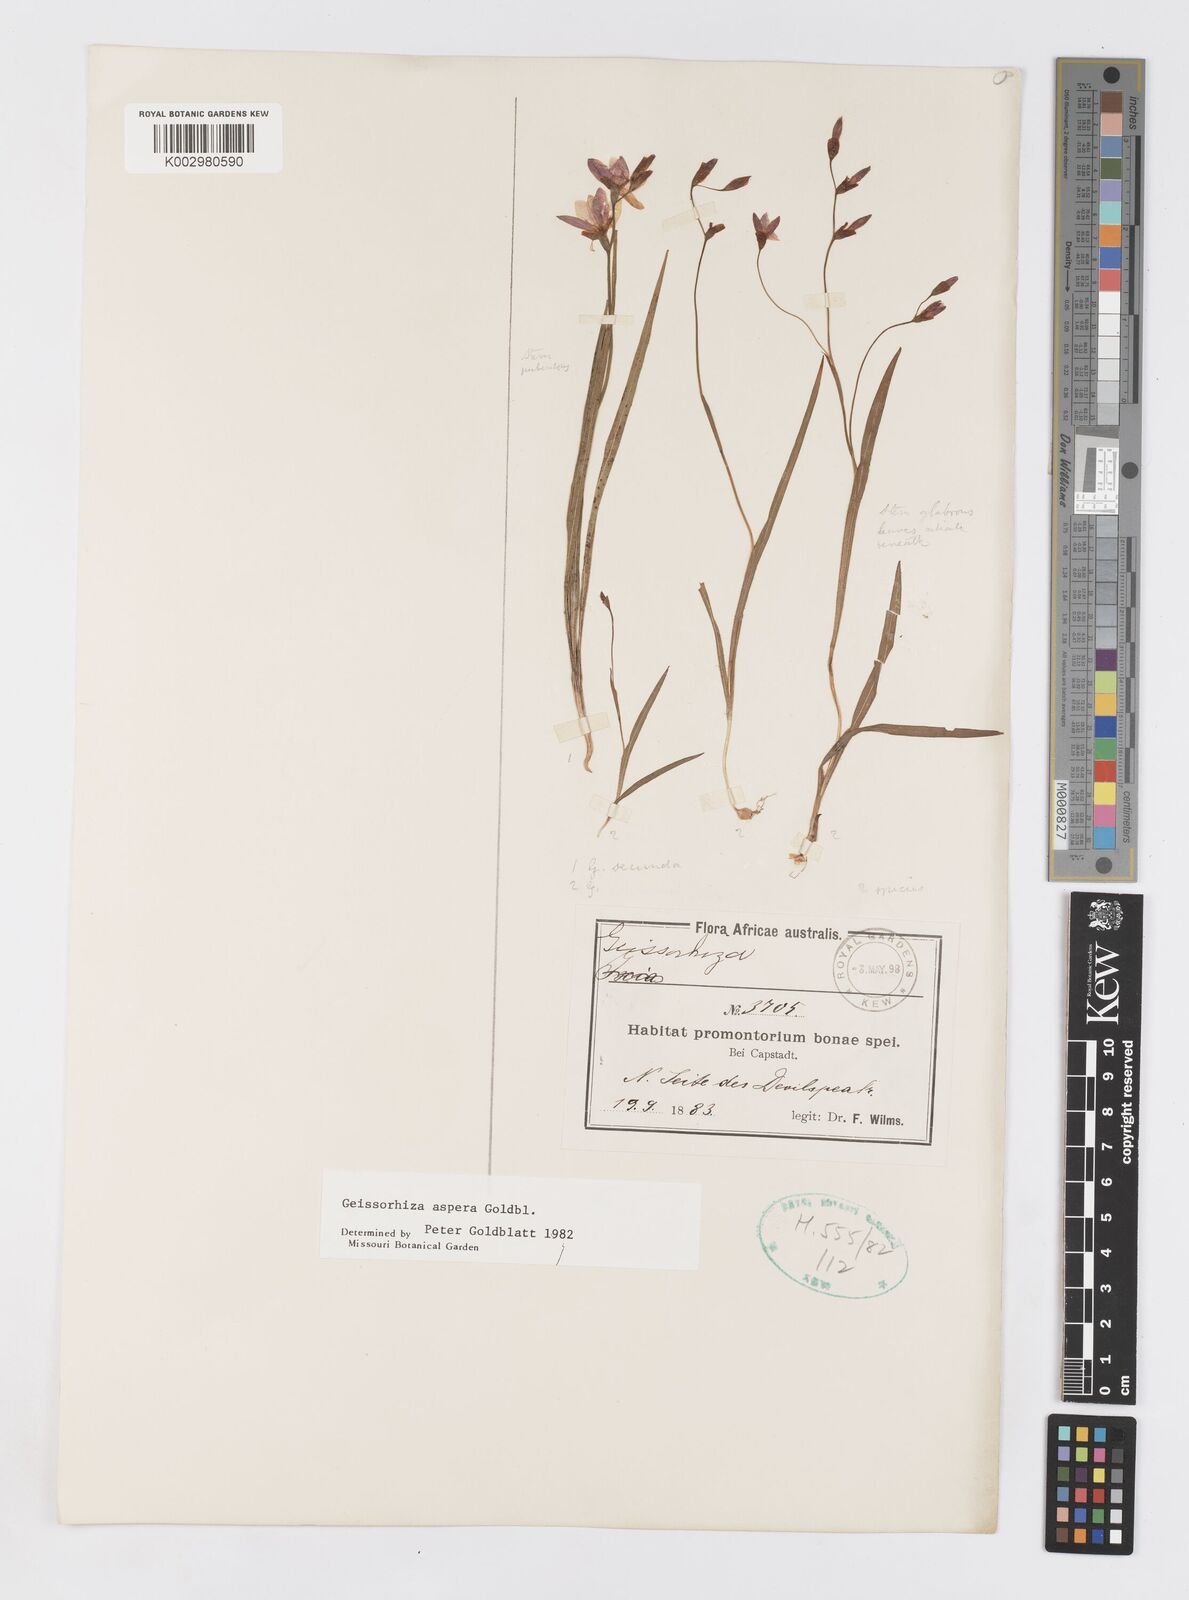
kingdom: Plantae
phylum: Tracheophyta
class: Liliopsida
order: Asparagales
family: Iridaceae
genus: Geissorhiza
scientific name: Geissorhiza aspera
